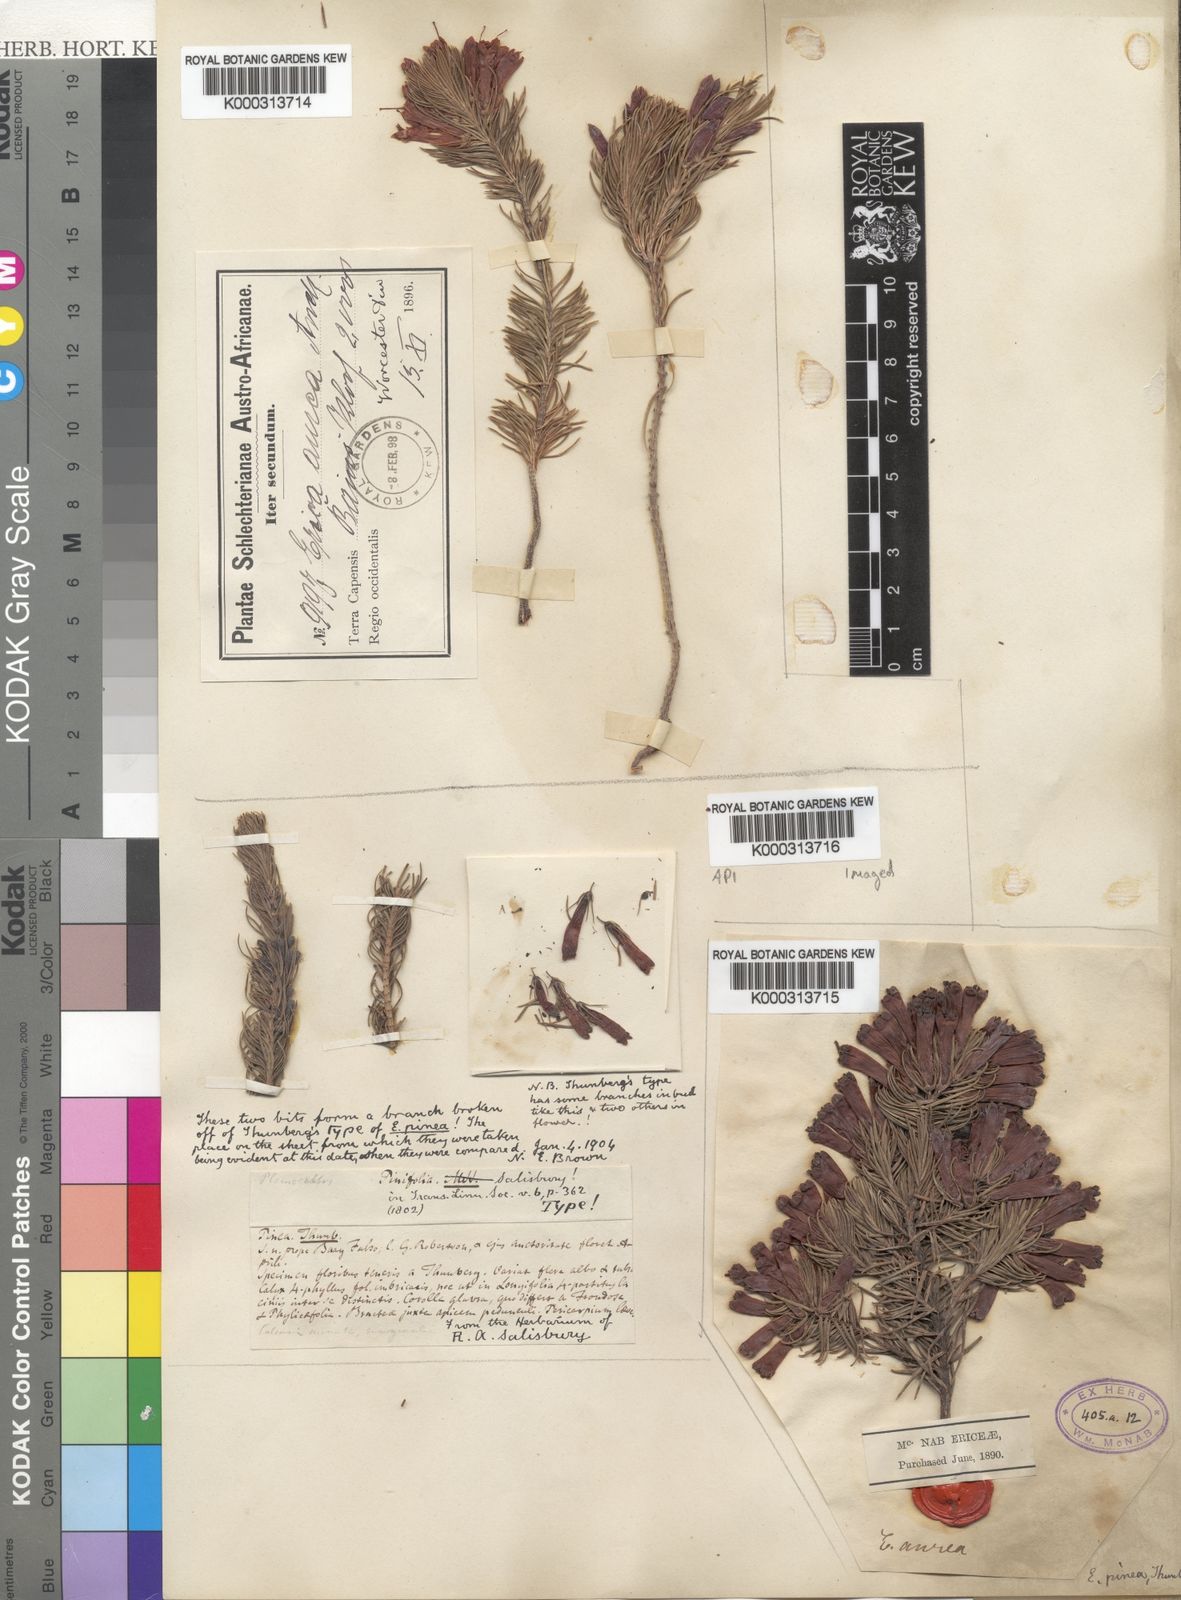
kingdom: Plantae
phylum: Tracheophyta
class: Magnoliopsida
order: Ericales
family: Ericaceae
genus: Erica
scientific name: Erica pinea
